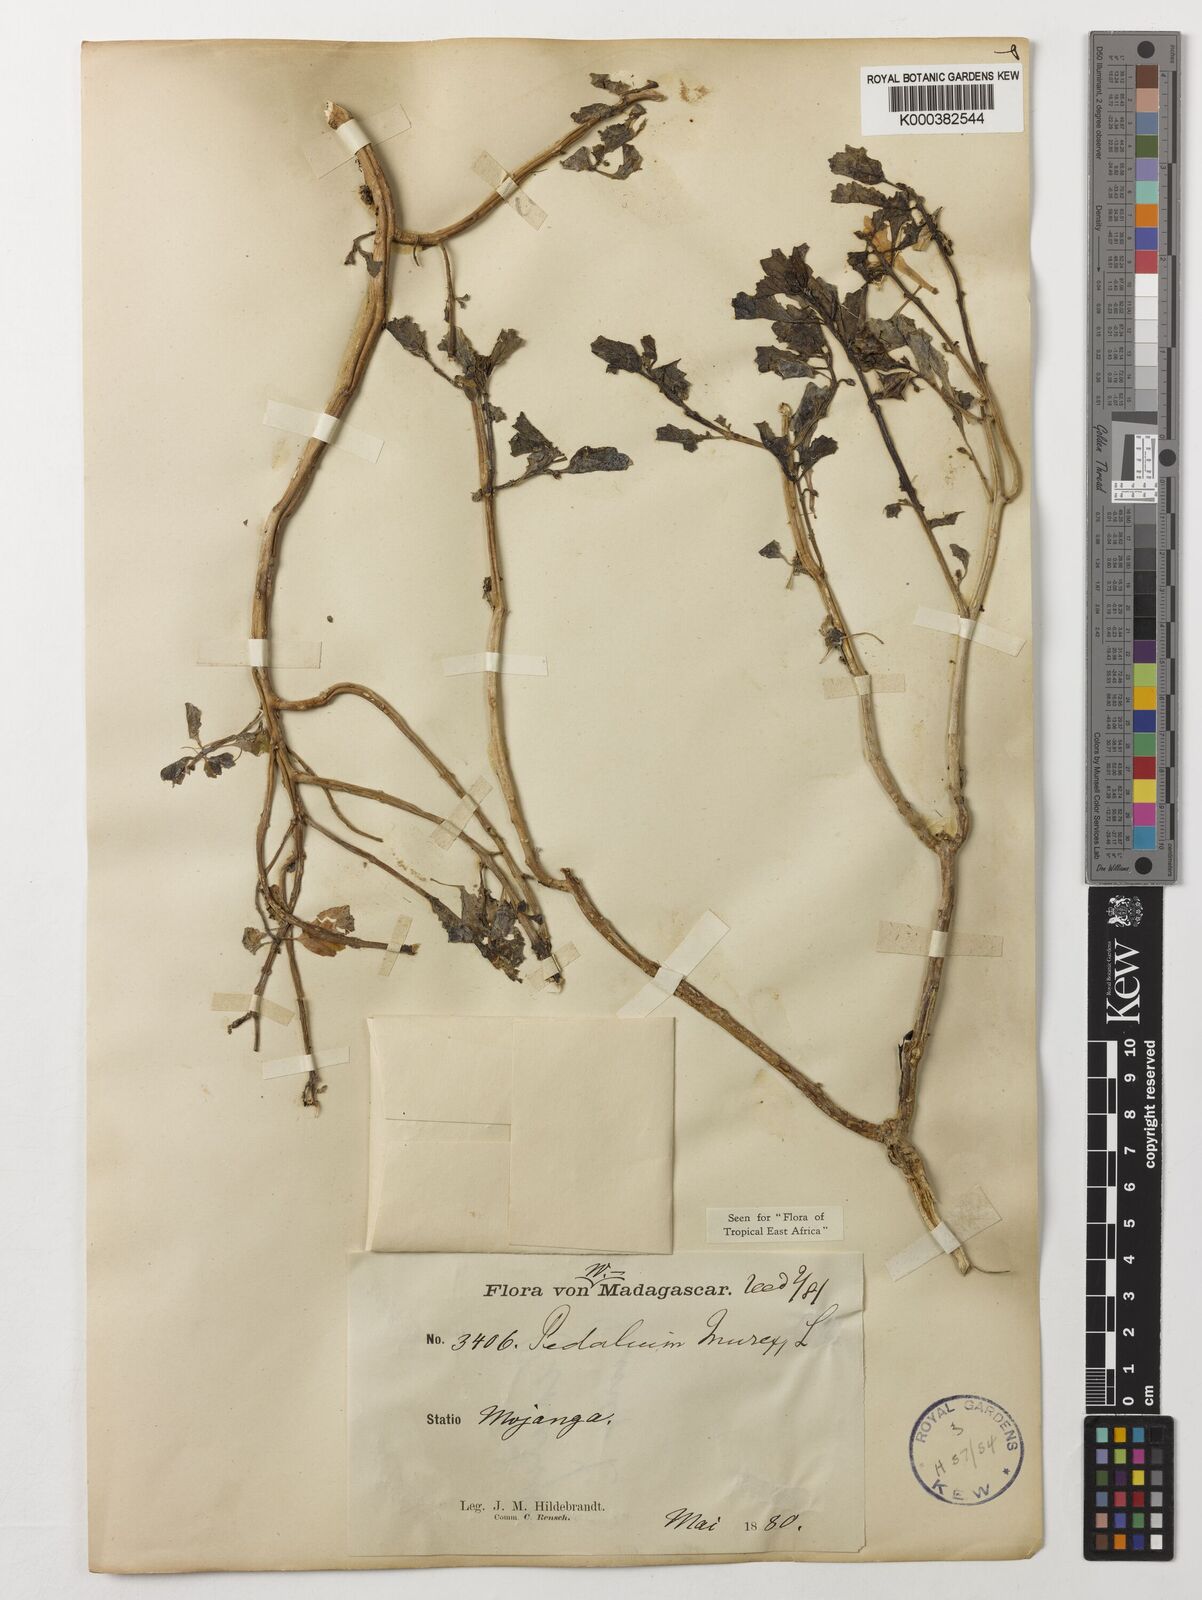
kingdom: Plantae
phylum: Tracheophyta
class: Magnoliopsida
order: Lamiales
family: Pedaliaceae
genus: Pedalium
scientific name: Pedalium murex
